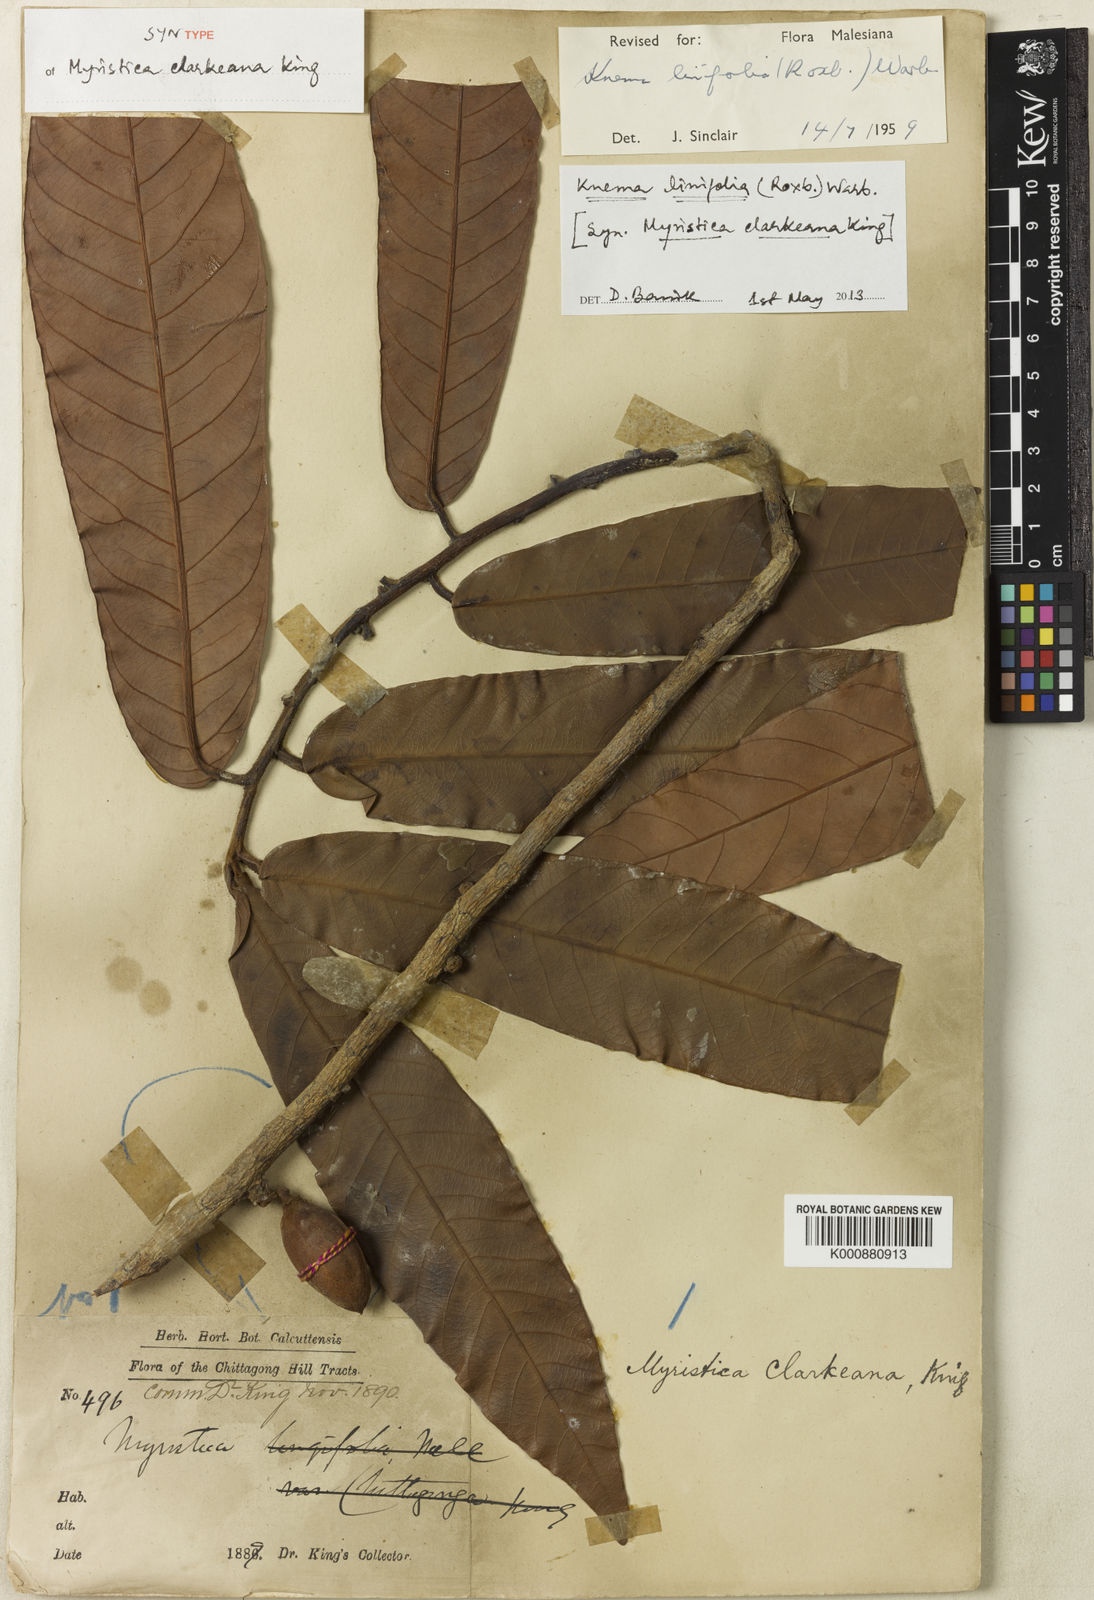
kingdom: Plantae
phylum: Tracheophyta
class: Magnoliopsida
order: Magnoliales
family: Myristicaceae
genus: Knema
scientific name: Knema linifolia
